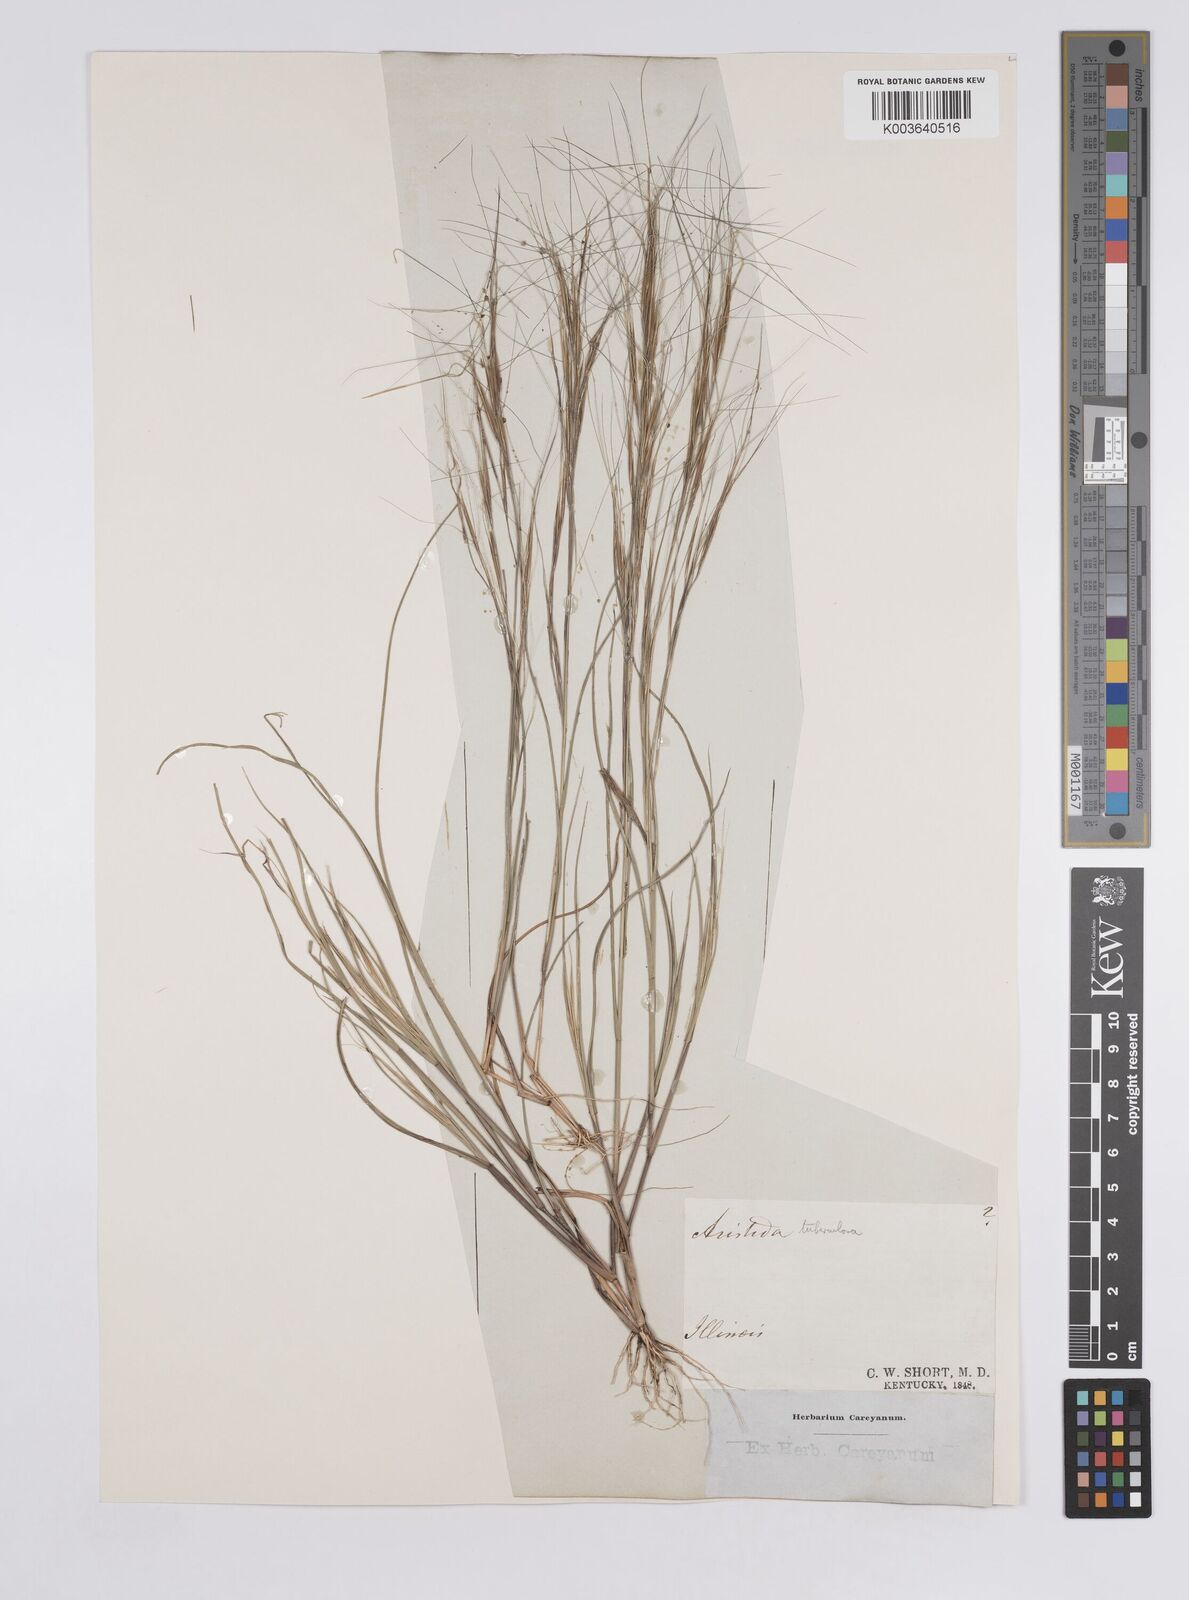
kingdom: Plantae
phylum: Tracheophyta
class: Liliopsida
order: Poales
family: Poaceae
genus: Aristida
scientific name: Aristida tuberculosa
